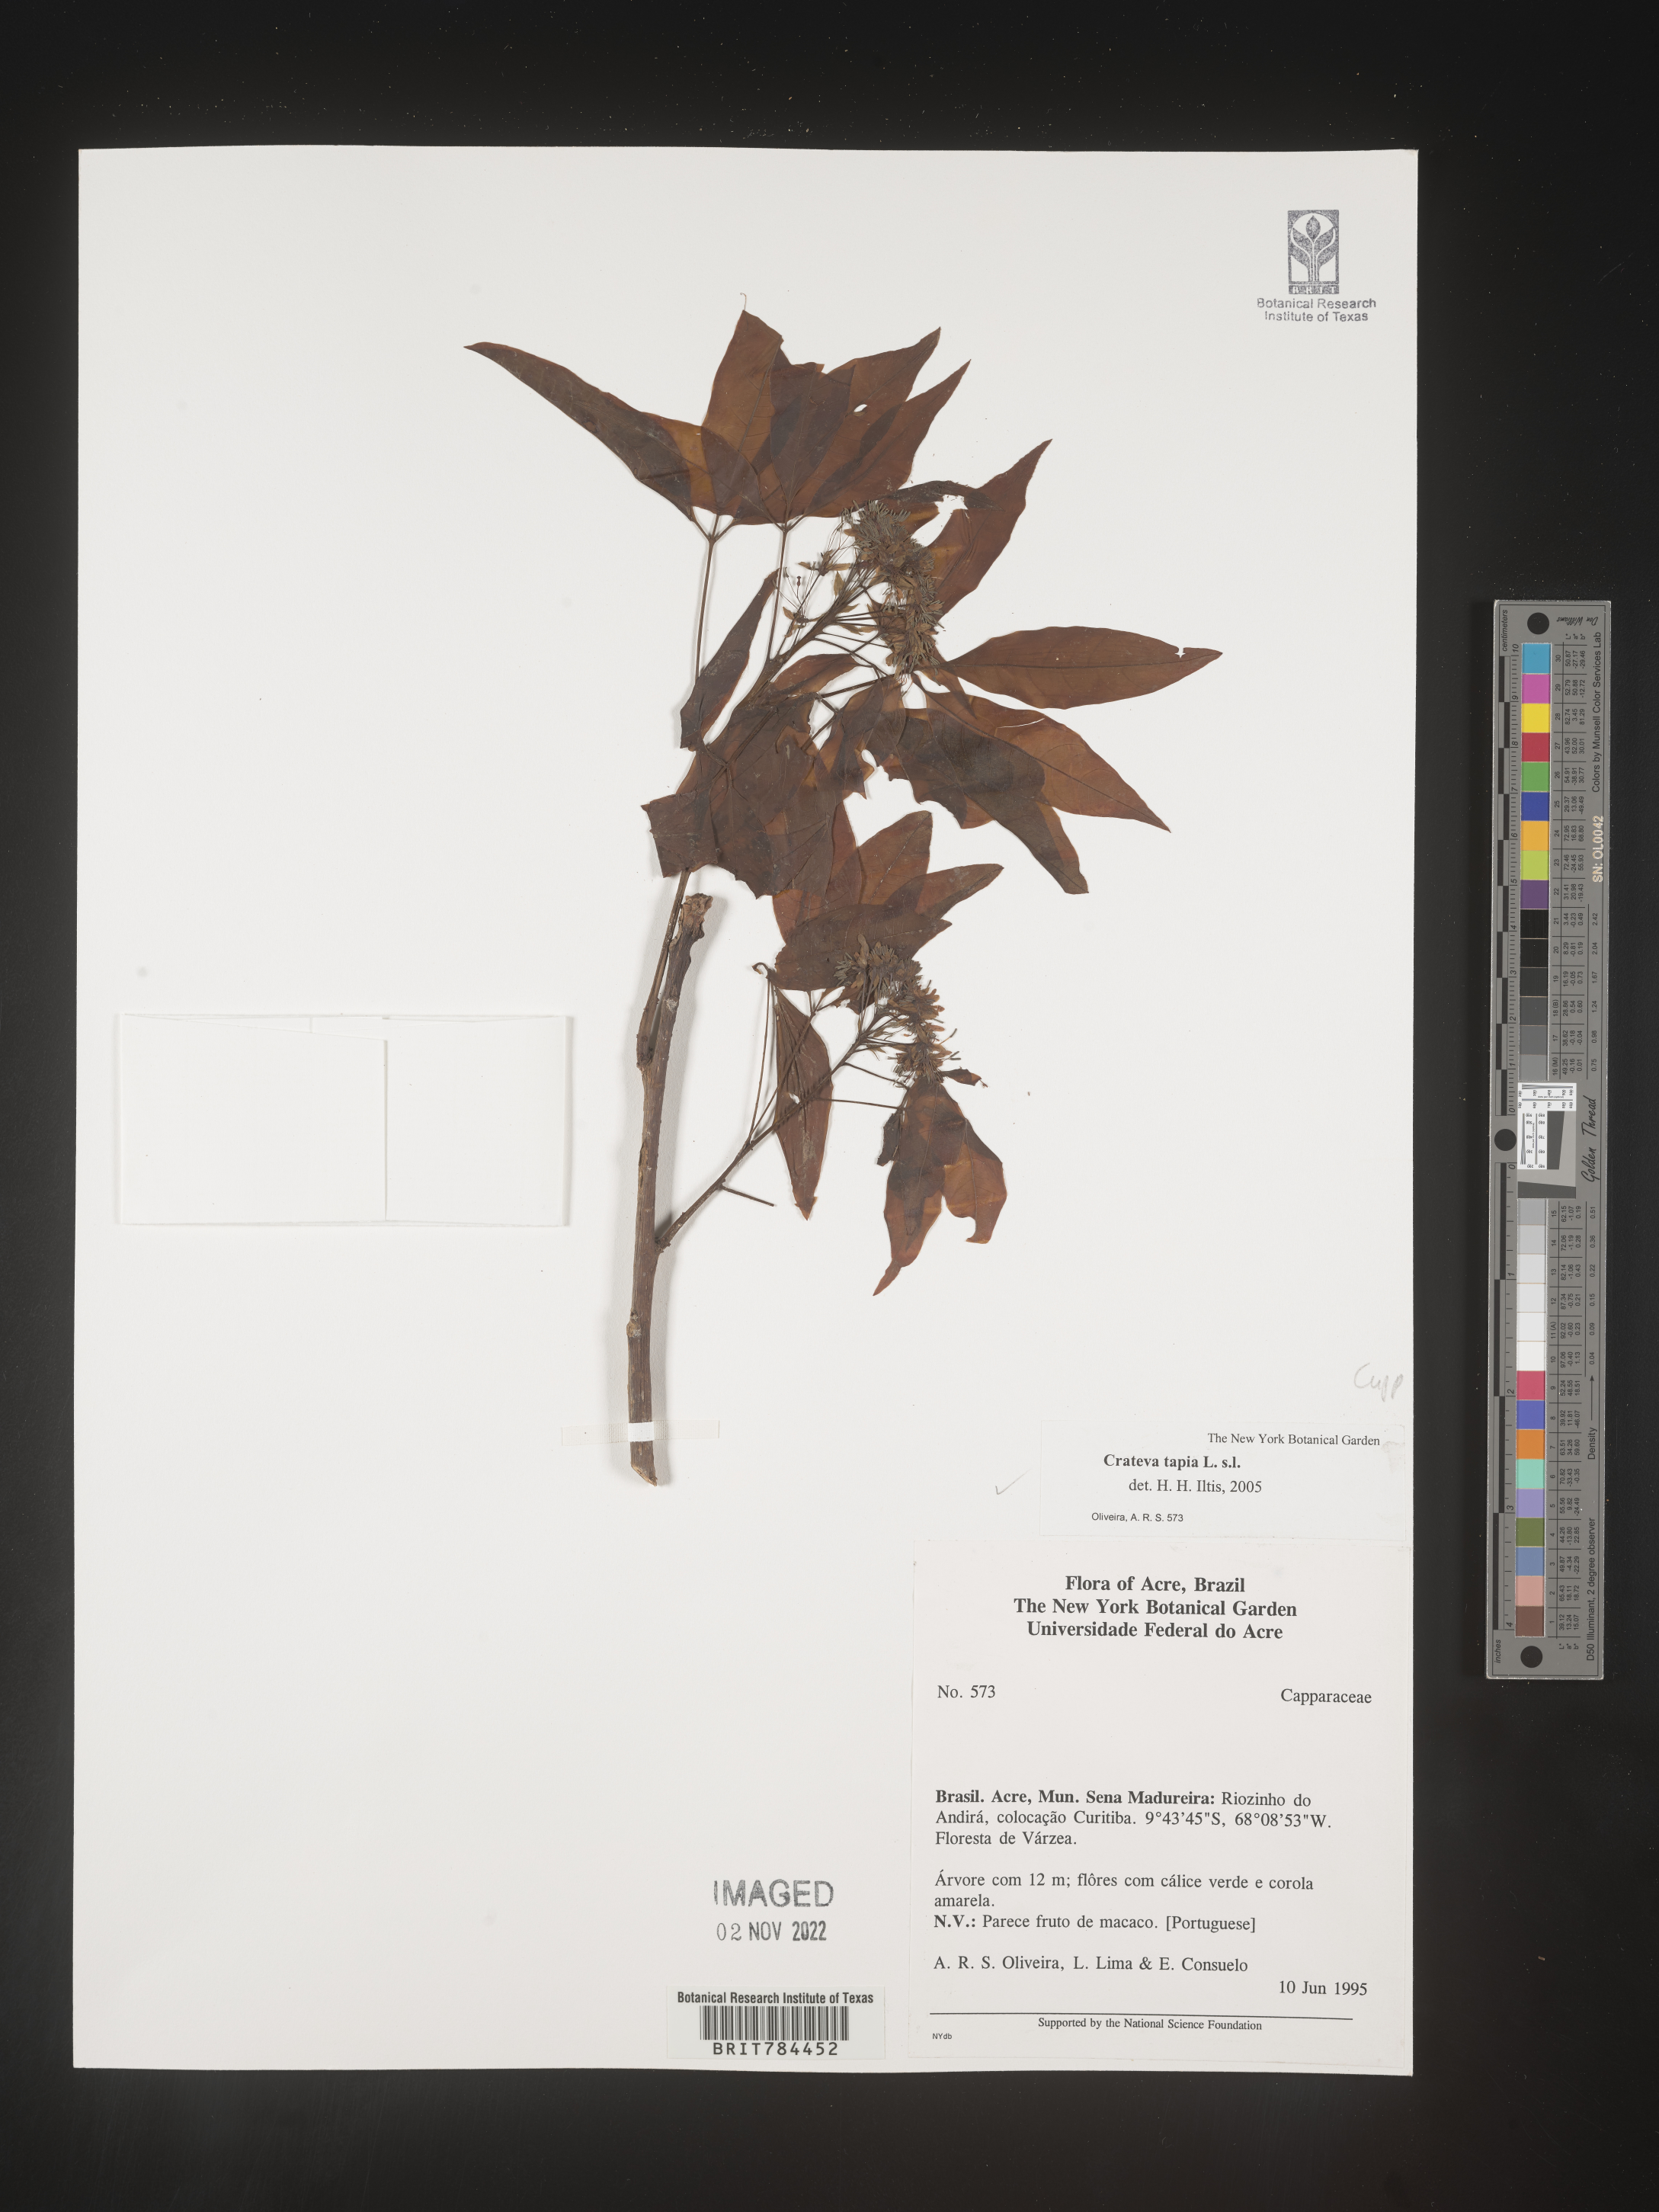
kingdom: Plantae
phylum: Tracheophyta
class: Magnoliopsida
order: Brassicales
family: Capparaceae
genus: Crateva
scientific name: Crateva
